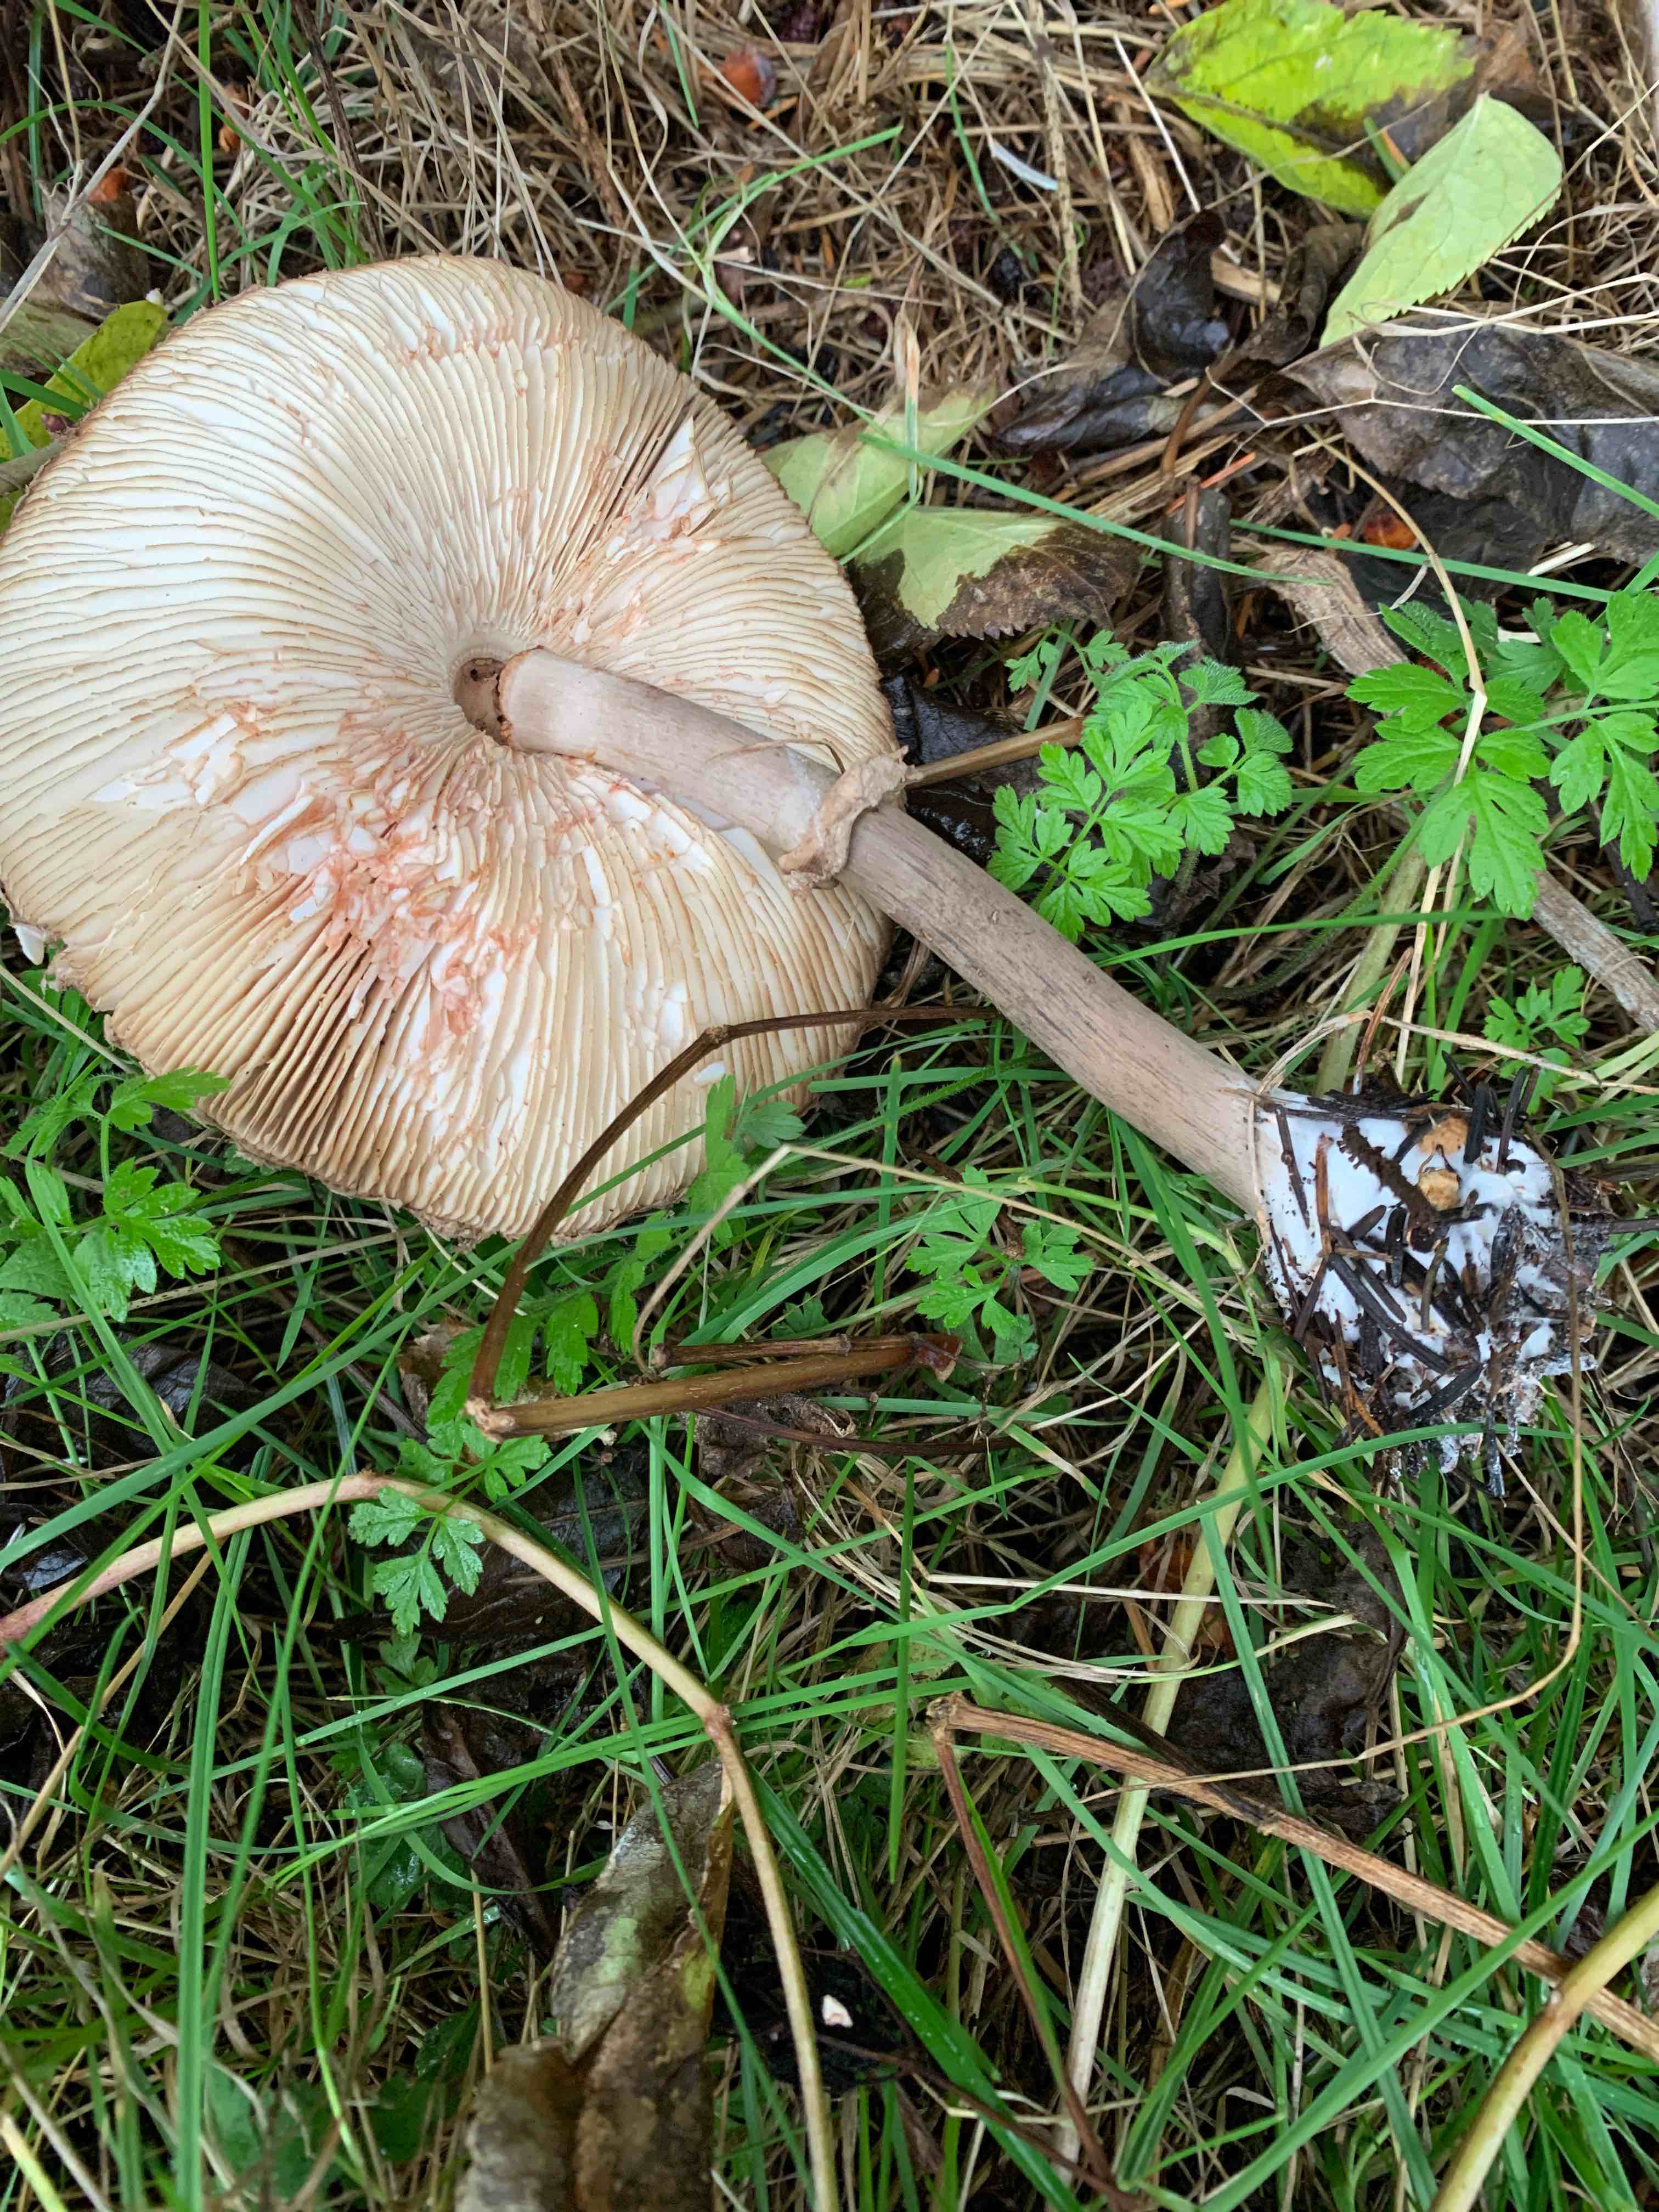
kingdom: Fungi
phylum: Basidiomycota
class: Agaricomycetes
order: Agaricales
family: Agaricaceae
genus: Chlorophyllum
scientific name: Chlorophyllum olivieri
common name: almindelig rabarberhat
